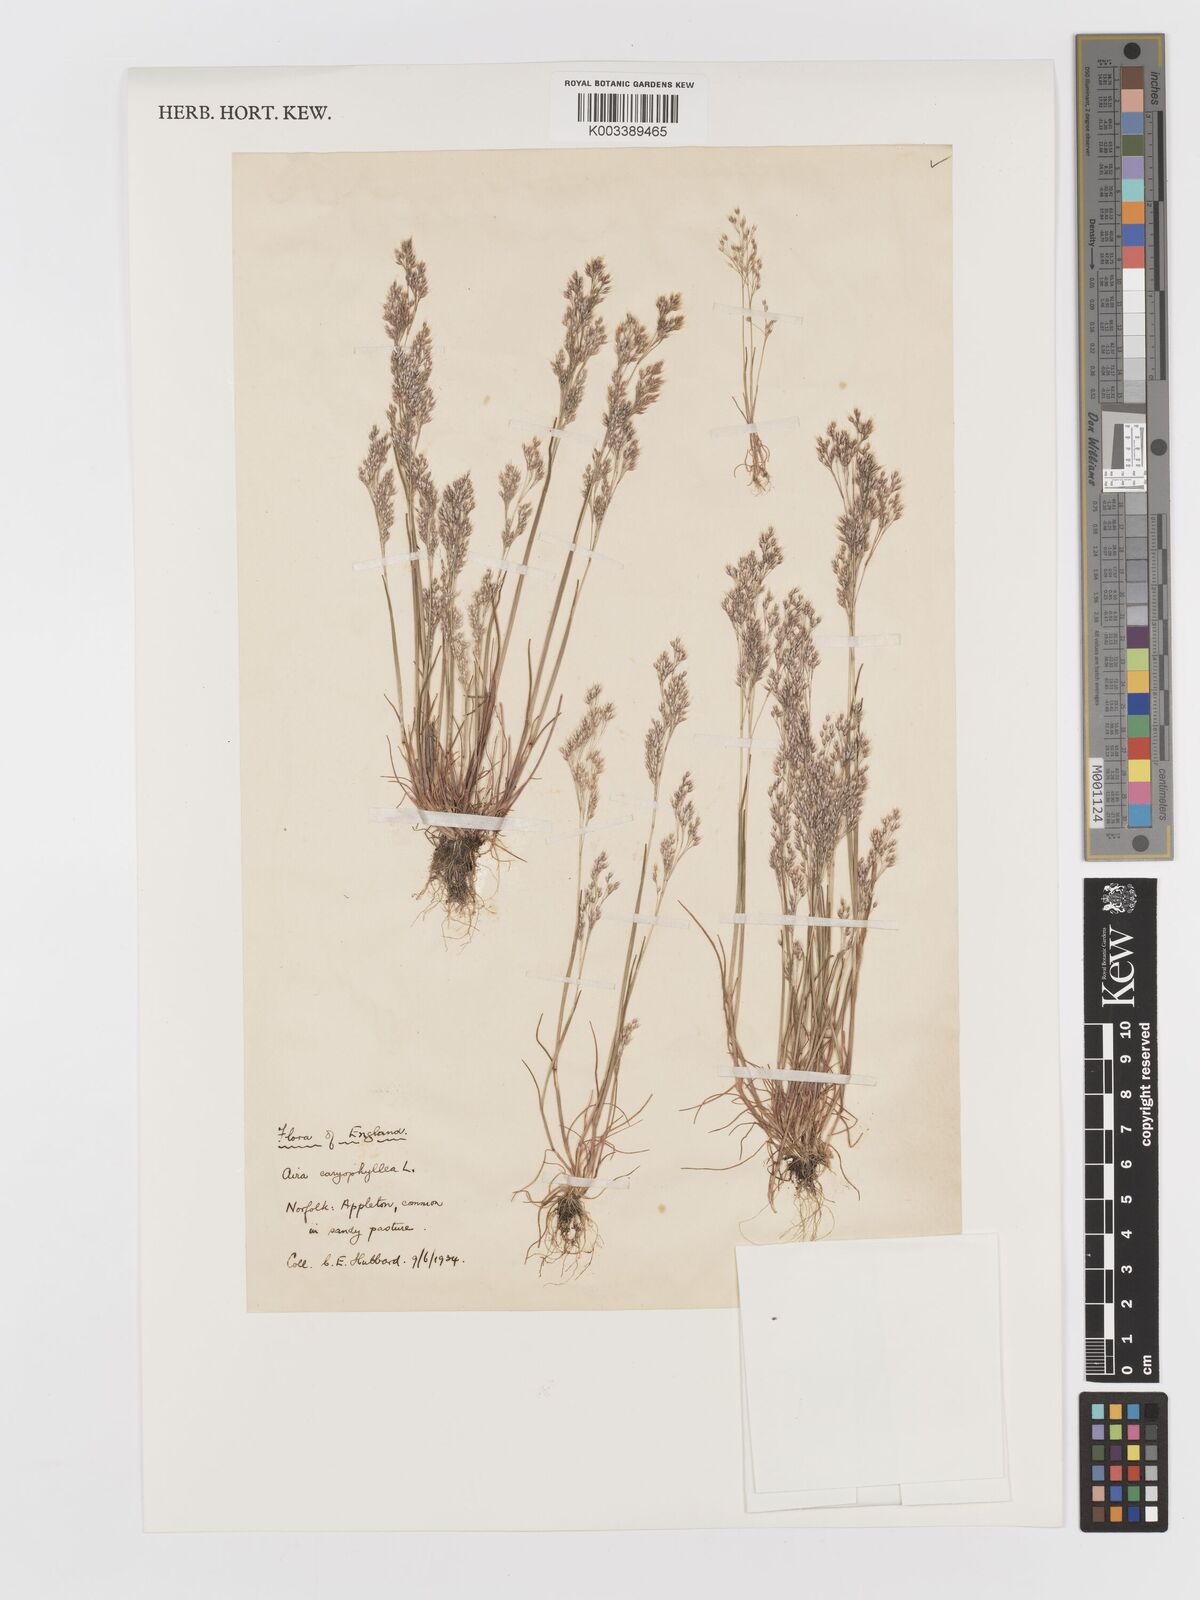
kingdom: Plantae
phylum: Tracheophyta
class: Liliopsida
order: Poales
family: Poaceae
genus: Aira
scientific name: Aira caryophyllea
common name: Silver hairgrass
